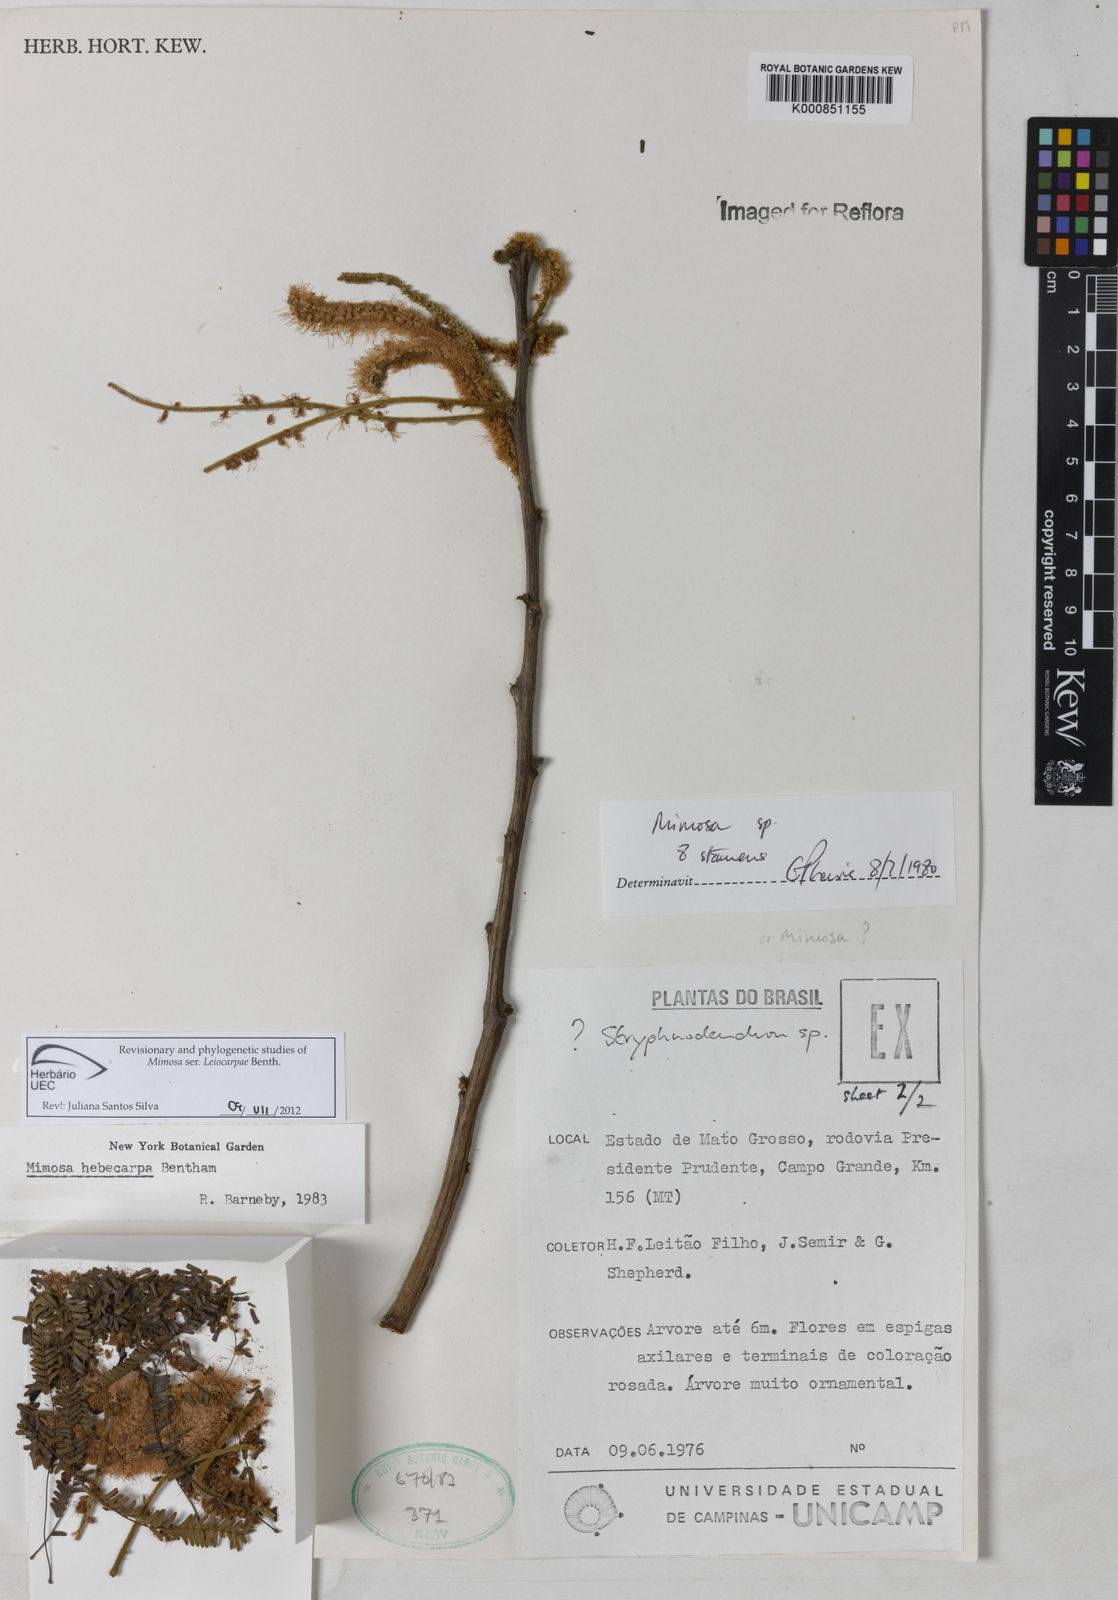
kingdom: Plantae
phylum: Tracheophyta
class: Magnoliopsida
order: Fabales
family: Fabaceae
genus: Mimosa
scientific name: Mimosa hebecarpa
